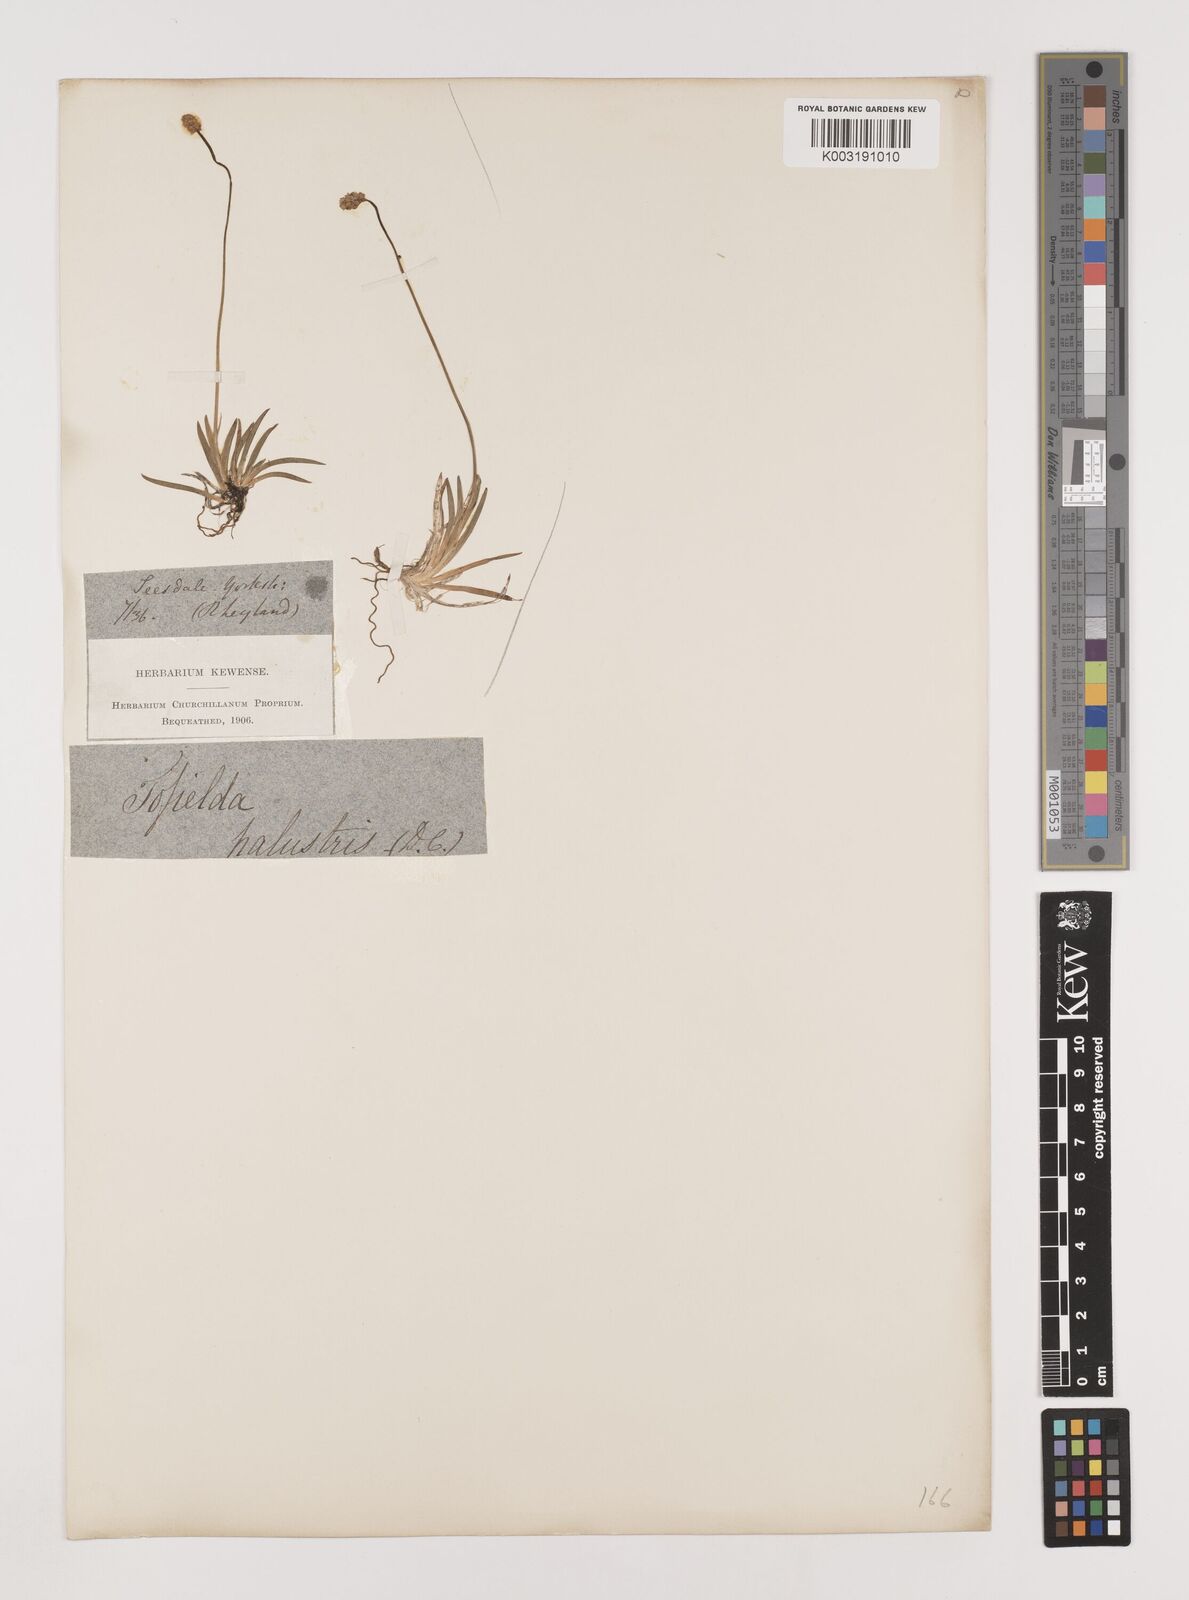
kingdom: Plantae
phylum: Tracheophyta
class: Liliopsida
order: Alismatales
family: Tofieldiaceae
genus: Tofieldia
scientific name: Tofieldia pusilla
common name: Scottish false asphodel
